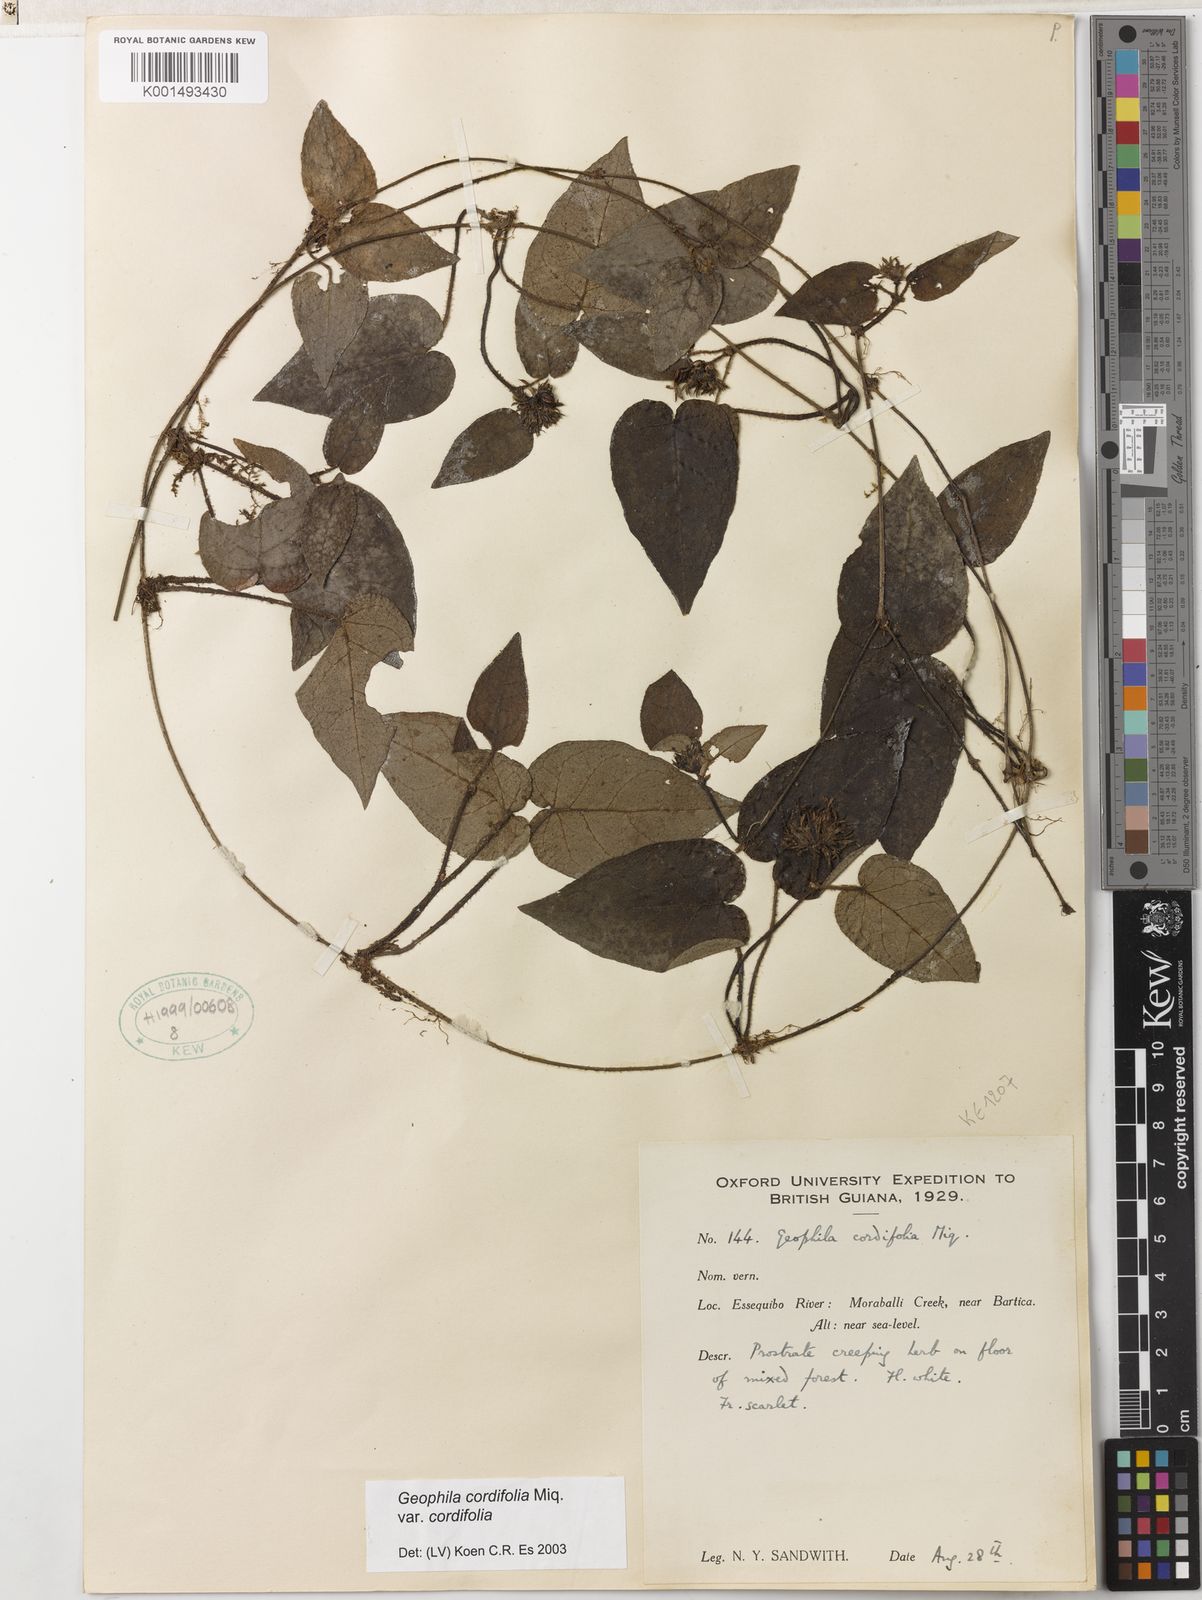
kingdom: Plantae
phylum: Tracheophyta
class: Magnoliopsida
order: Gentianales
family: Rubiaceae
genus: Geophila
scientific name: Geophila cordifolia
